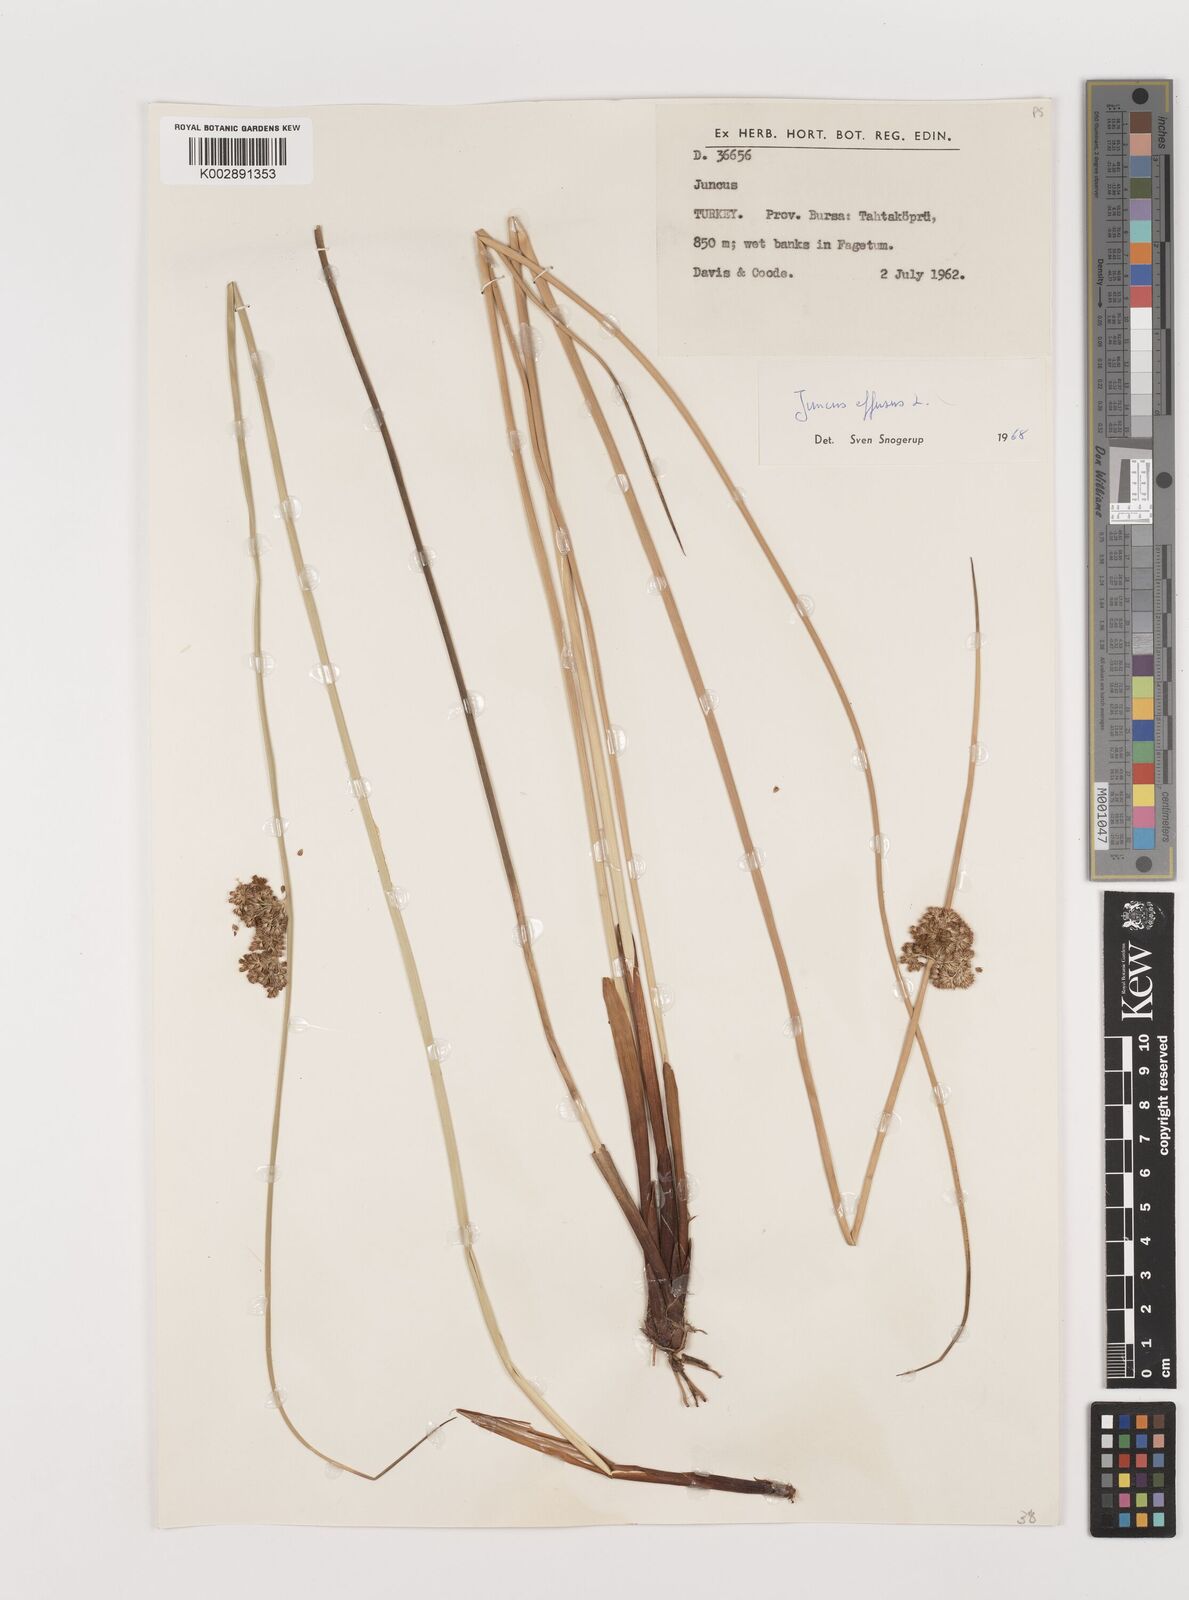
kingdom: Plantae
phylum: Tracheophyta
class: Liliopsida
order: Poales
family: Juncaceae
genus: Juncus
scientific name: Juncus effusus
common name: Soft rush
